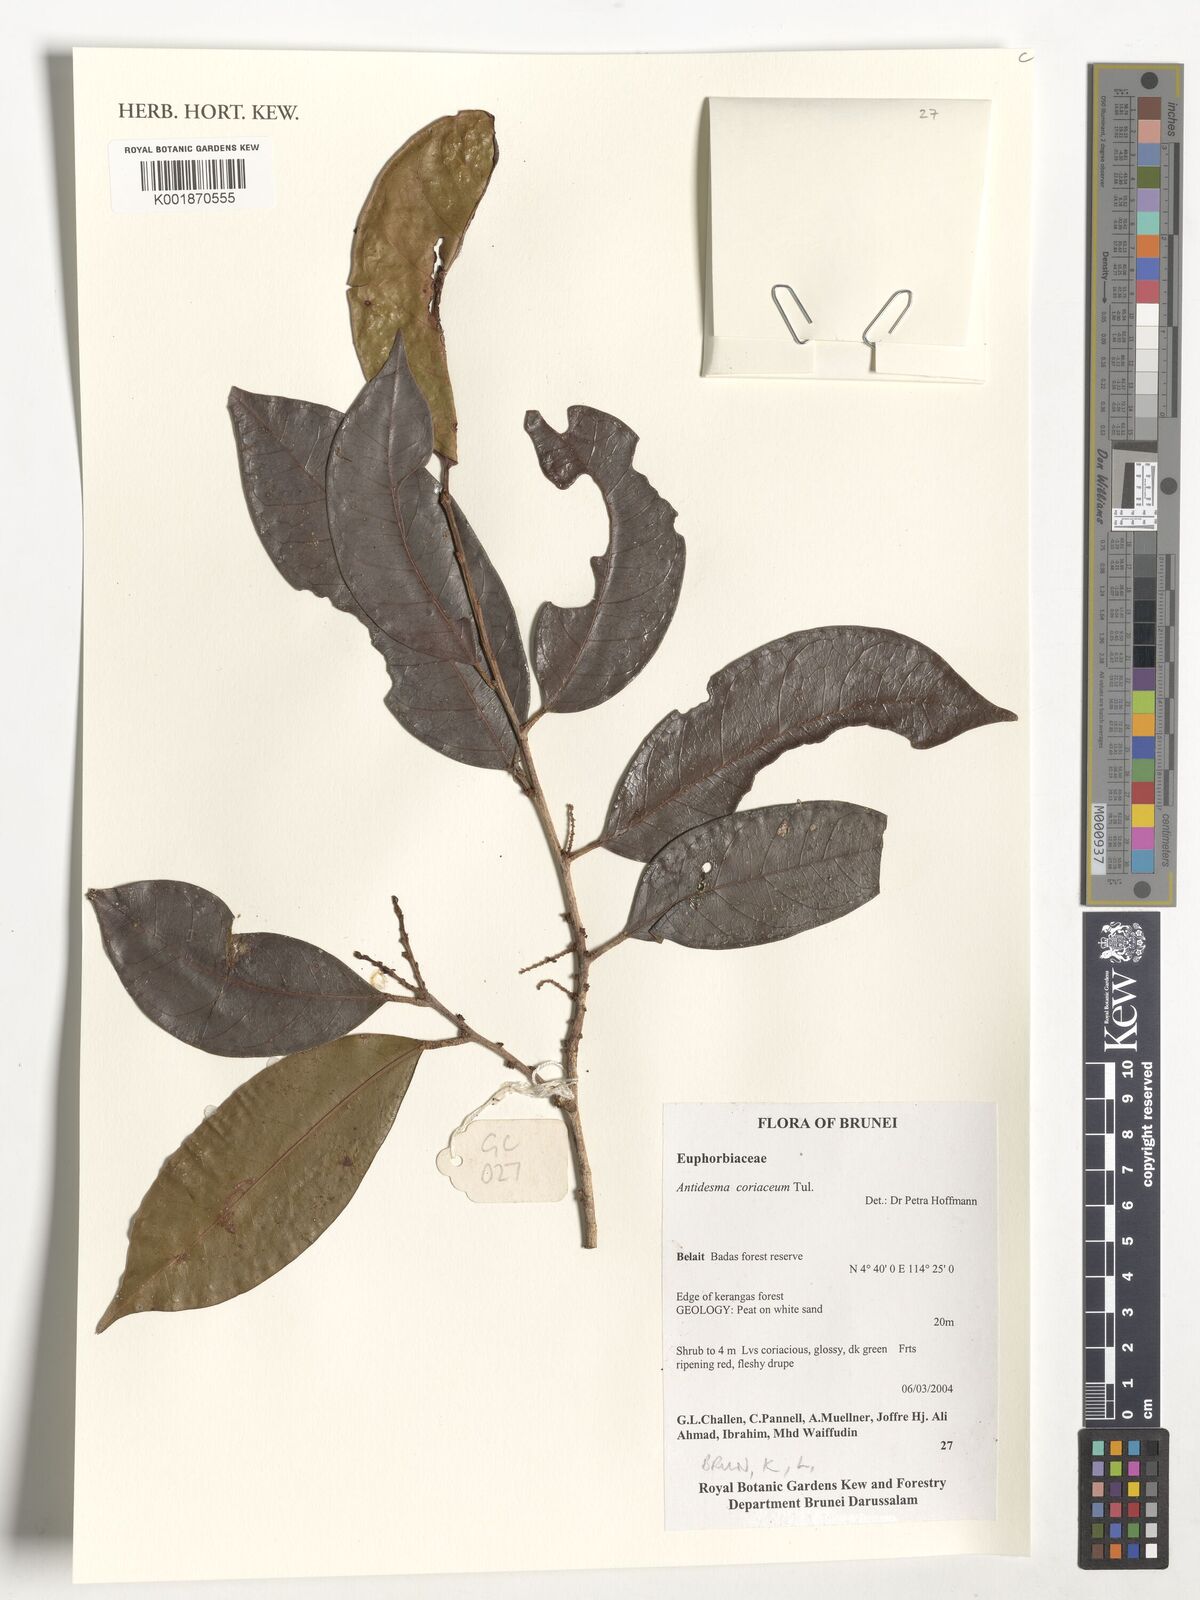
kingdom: Plantae
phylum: Tracheophyta
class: Magnoliopsida
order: Malpighiales
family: Phyllanthaceae
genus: Antidesma
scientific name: Antidesma coriaceum
